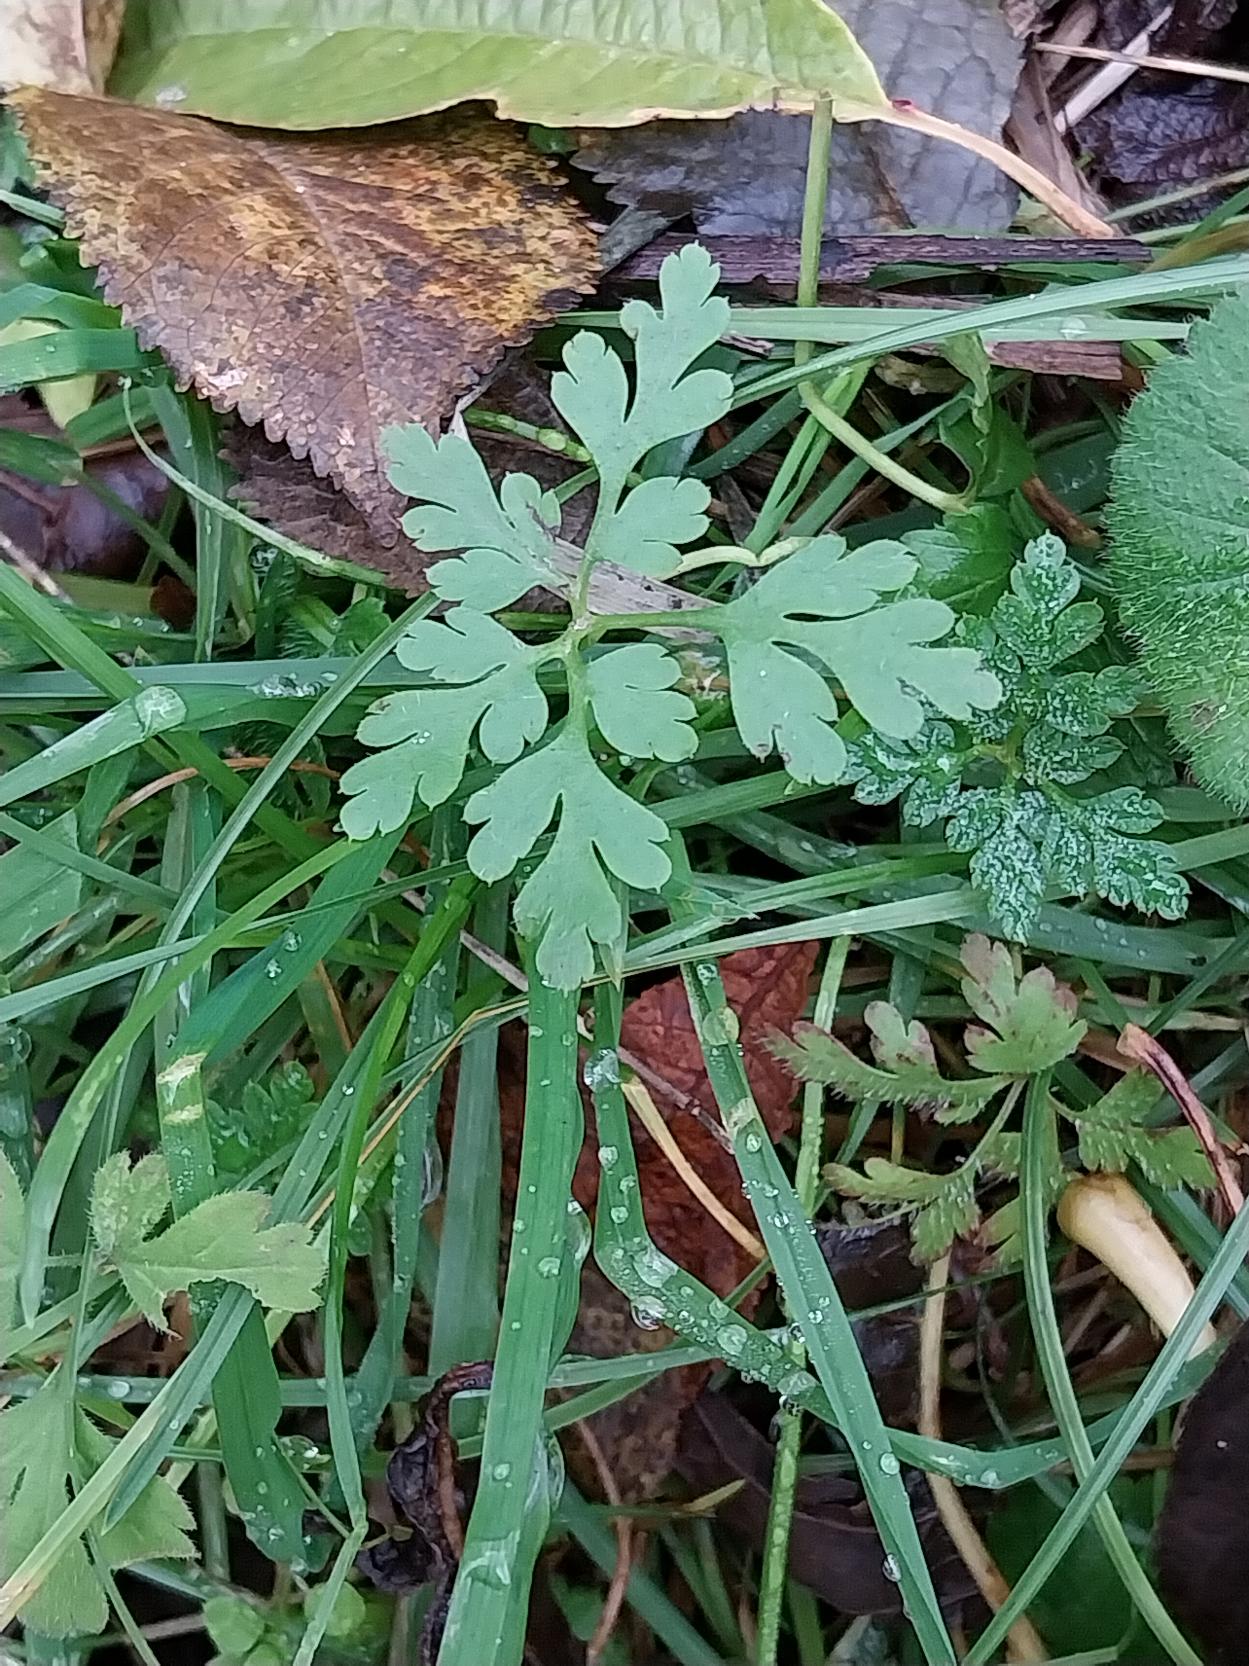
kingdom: Plantae
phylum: Tracheophyta
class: Magnoliopsida
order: Geraniales
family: Geraniaceae
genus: Geranium
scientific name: Geranium robertianum
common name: Stinkende storkenæb
